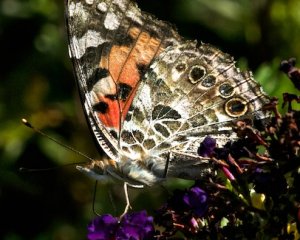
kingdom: Animalia
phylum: Arthropoda
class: Insecta
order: Lepidoptera
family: Nymphalidae
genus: Vanessa
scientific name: Vanessa cardui
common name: Painted Lady
